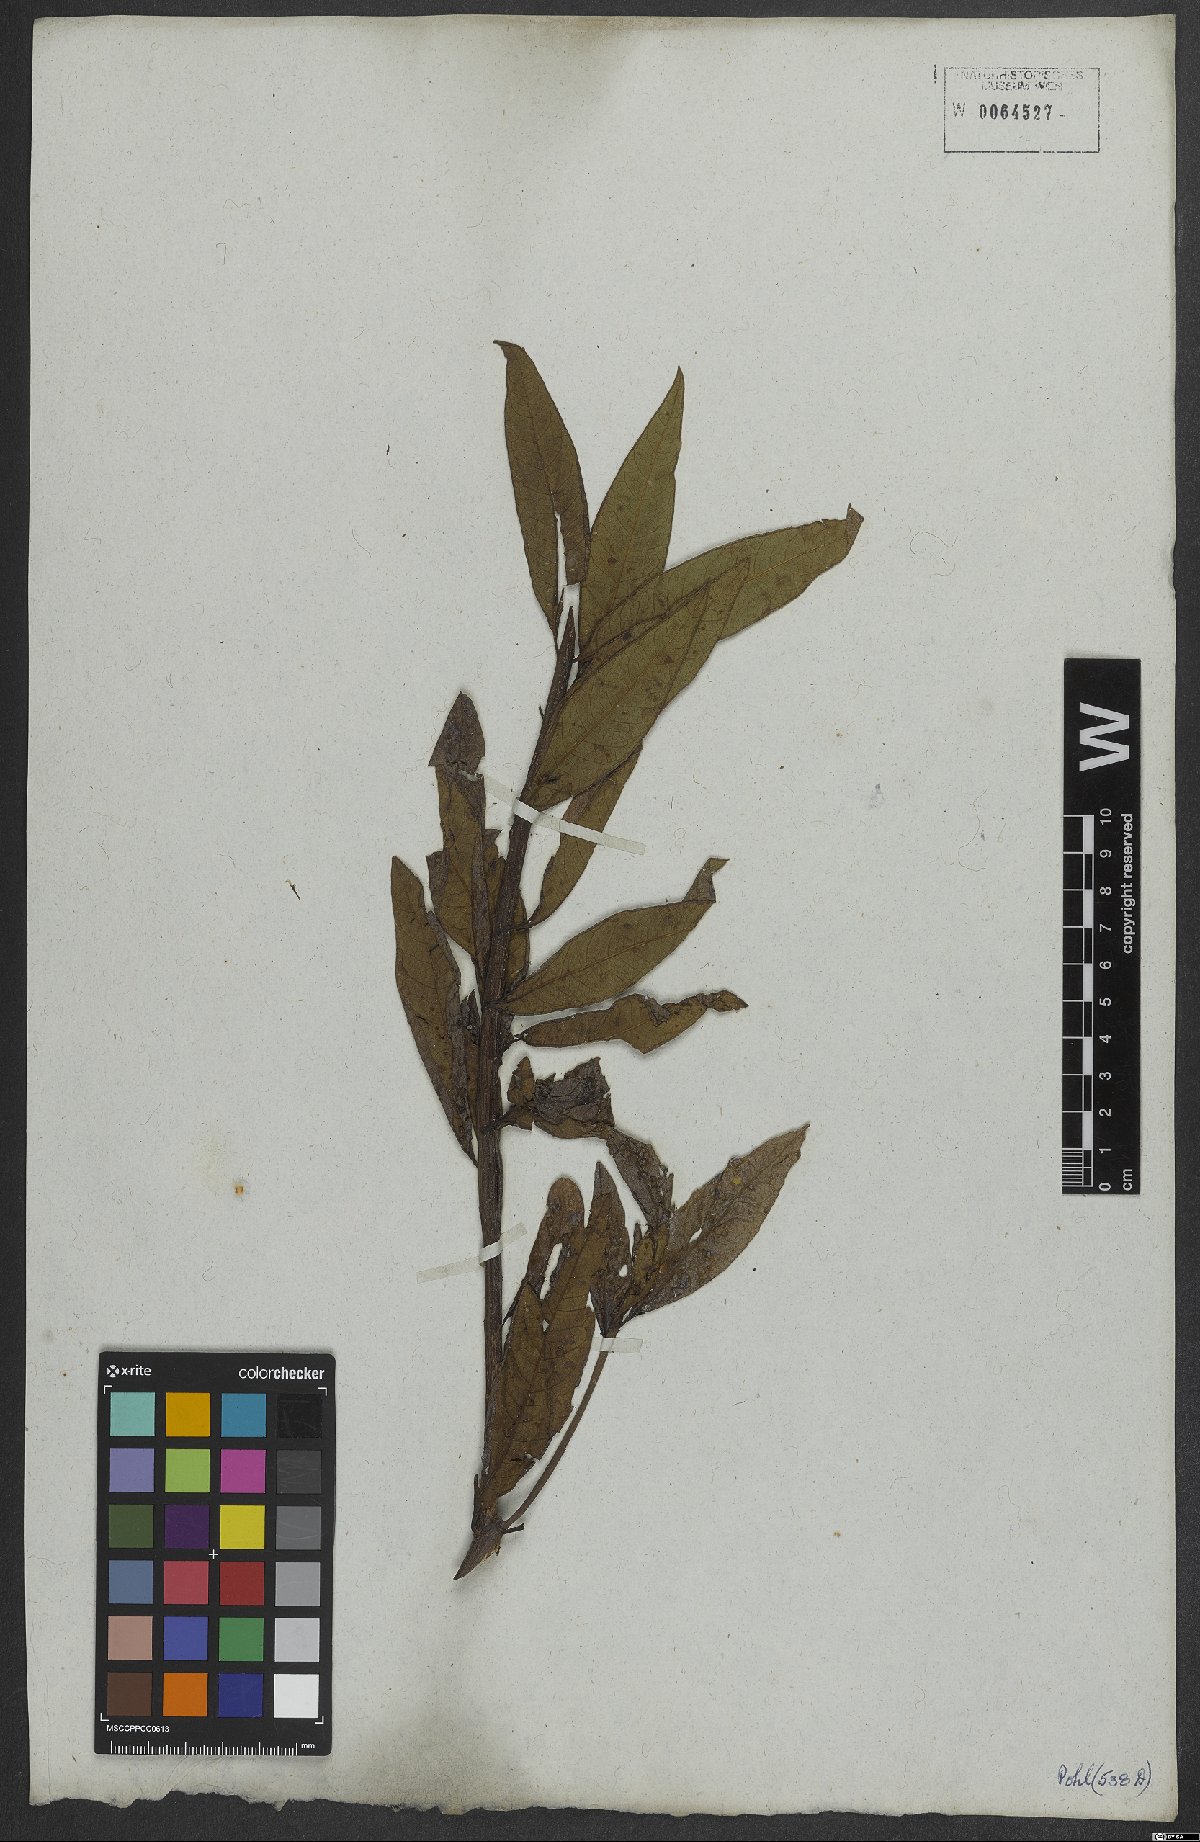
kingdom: Plantae
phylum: Tracheophyta
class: Magnoliopsida
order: Asterales
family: Asteraceae
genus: Vernonanthura
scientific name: Vernonanthura beyrichii
